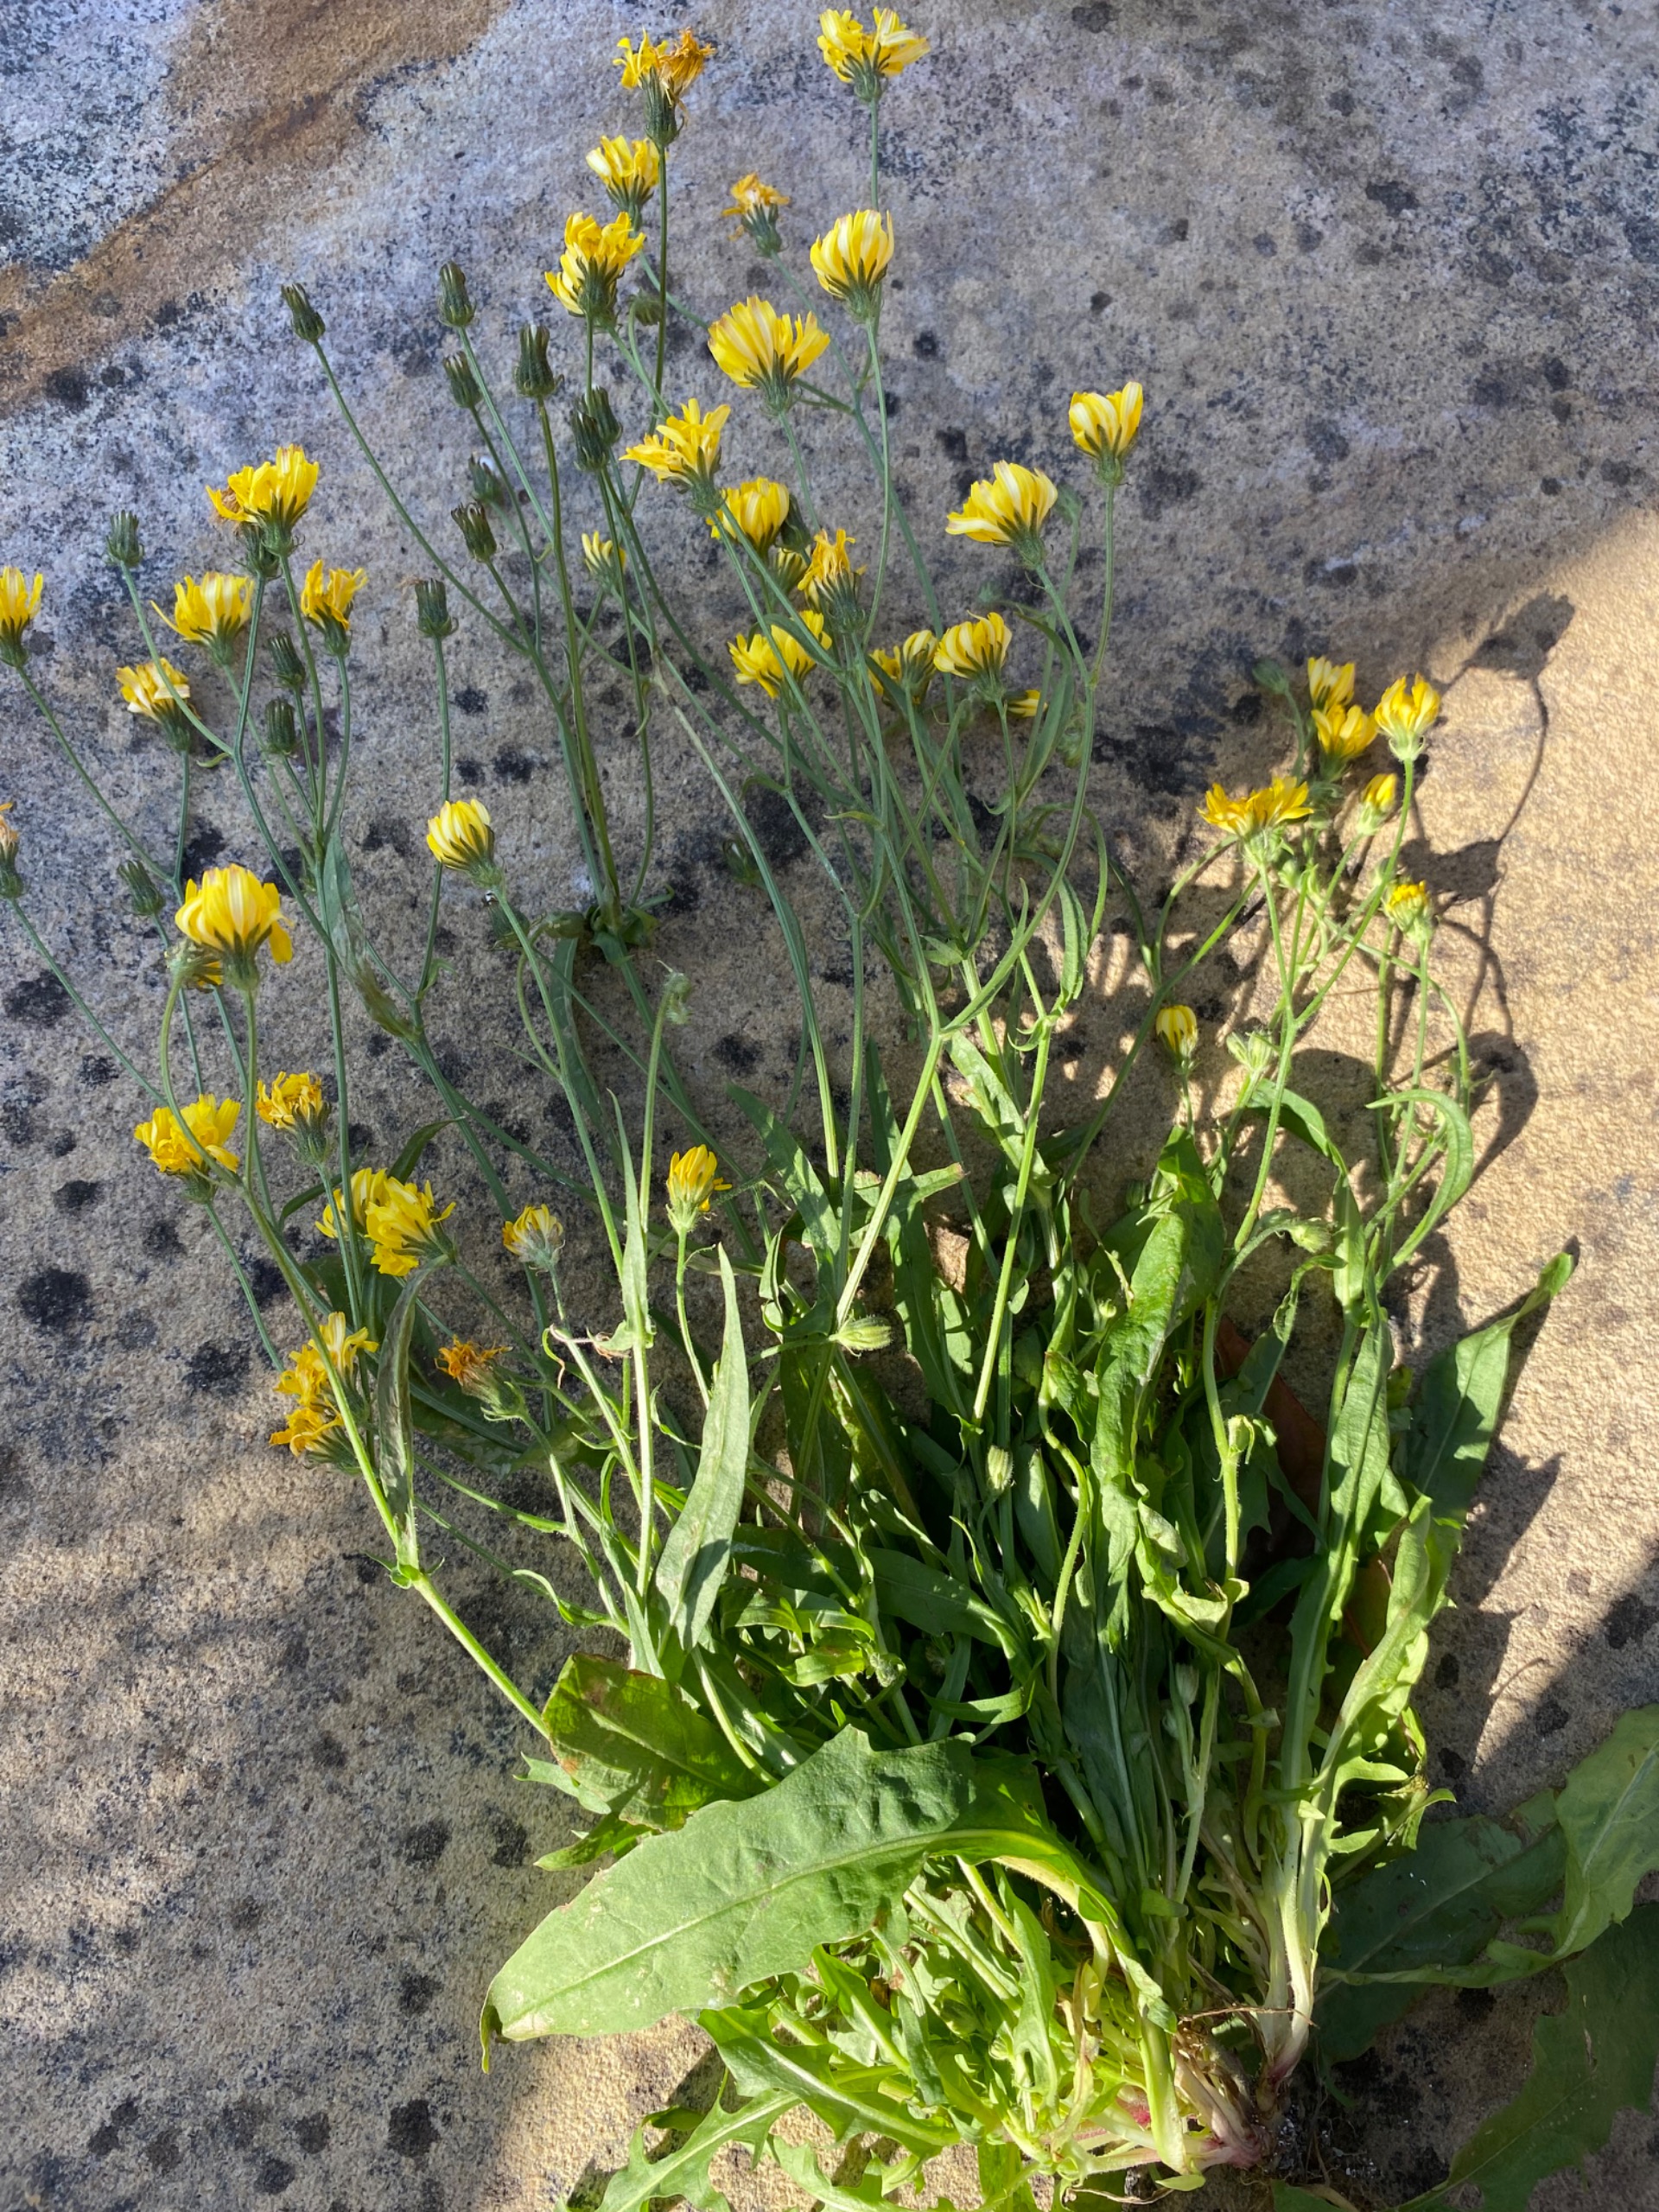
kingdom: Plantae
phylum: Tracheophyta
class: Magnoliopsida
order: Asterales
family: Asteraceae
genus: Crepis
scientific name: Crepis capillaris
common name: Grøn høgeskæg
